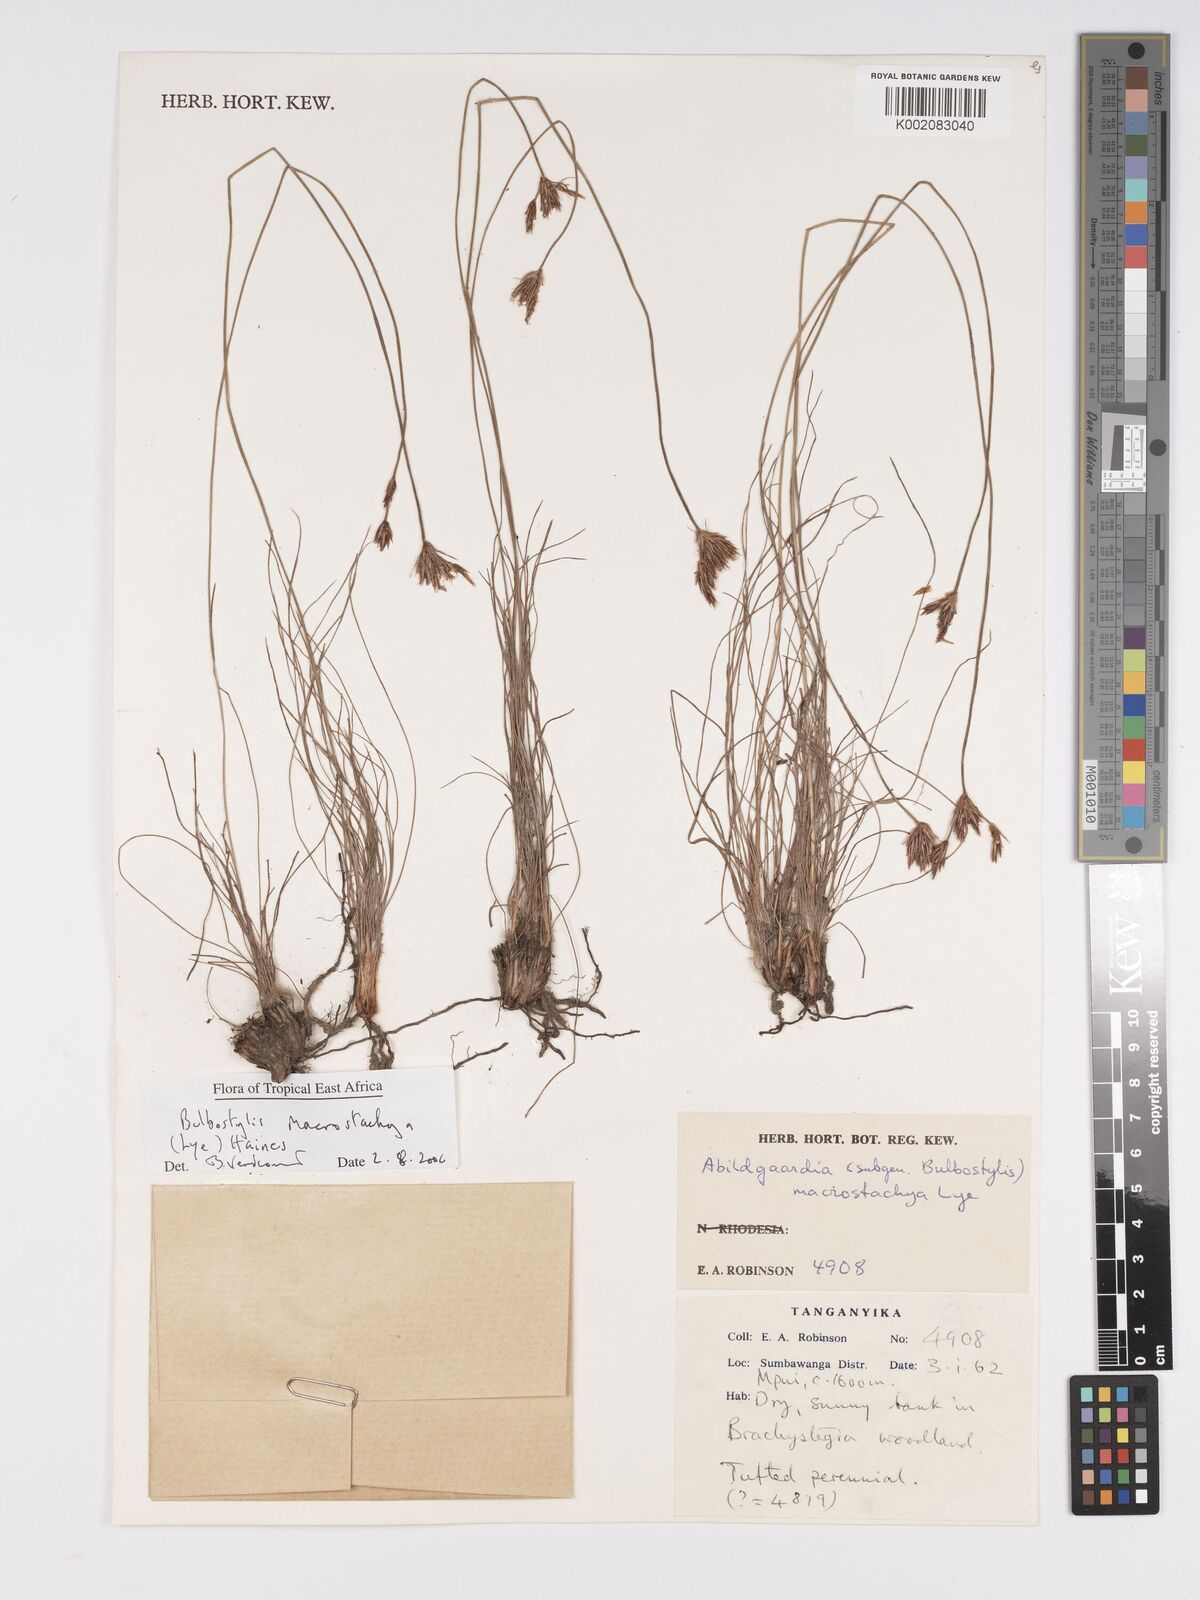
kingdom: Plantae
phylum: Tracheophyta
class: Liliopsida
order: Poales
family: Cyperaceae
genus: Bulbostylis
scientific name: Bulbostylis macrostachya
